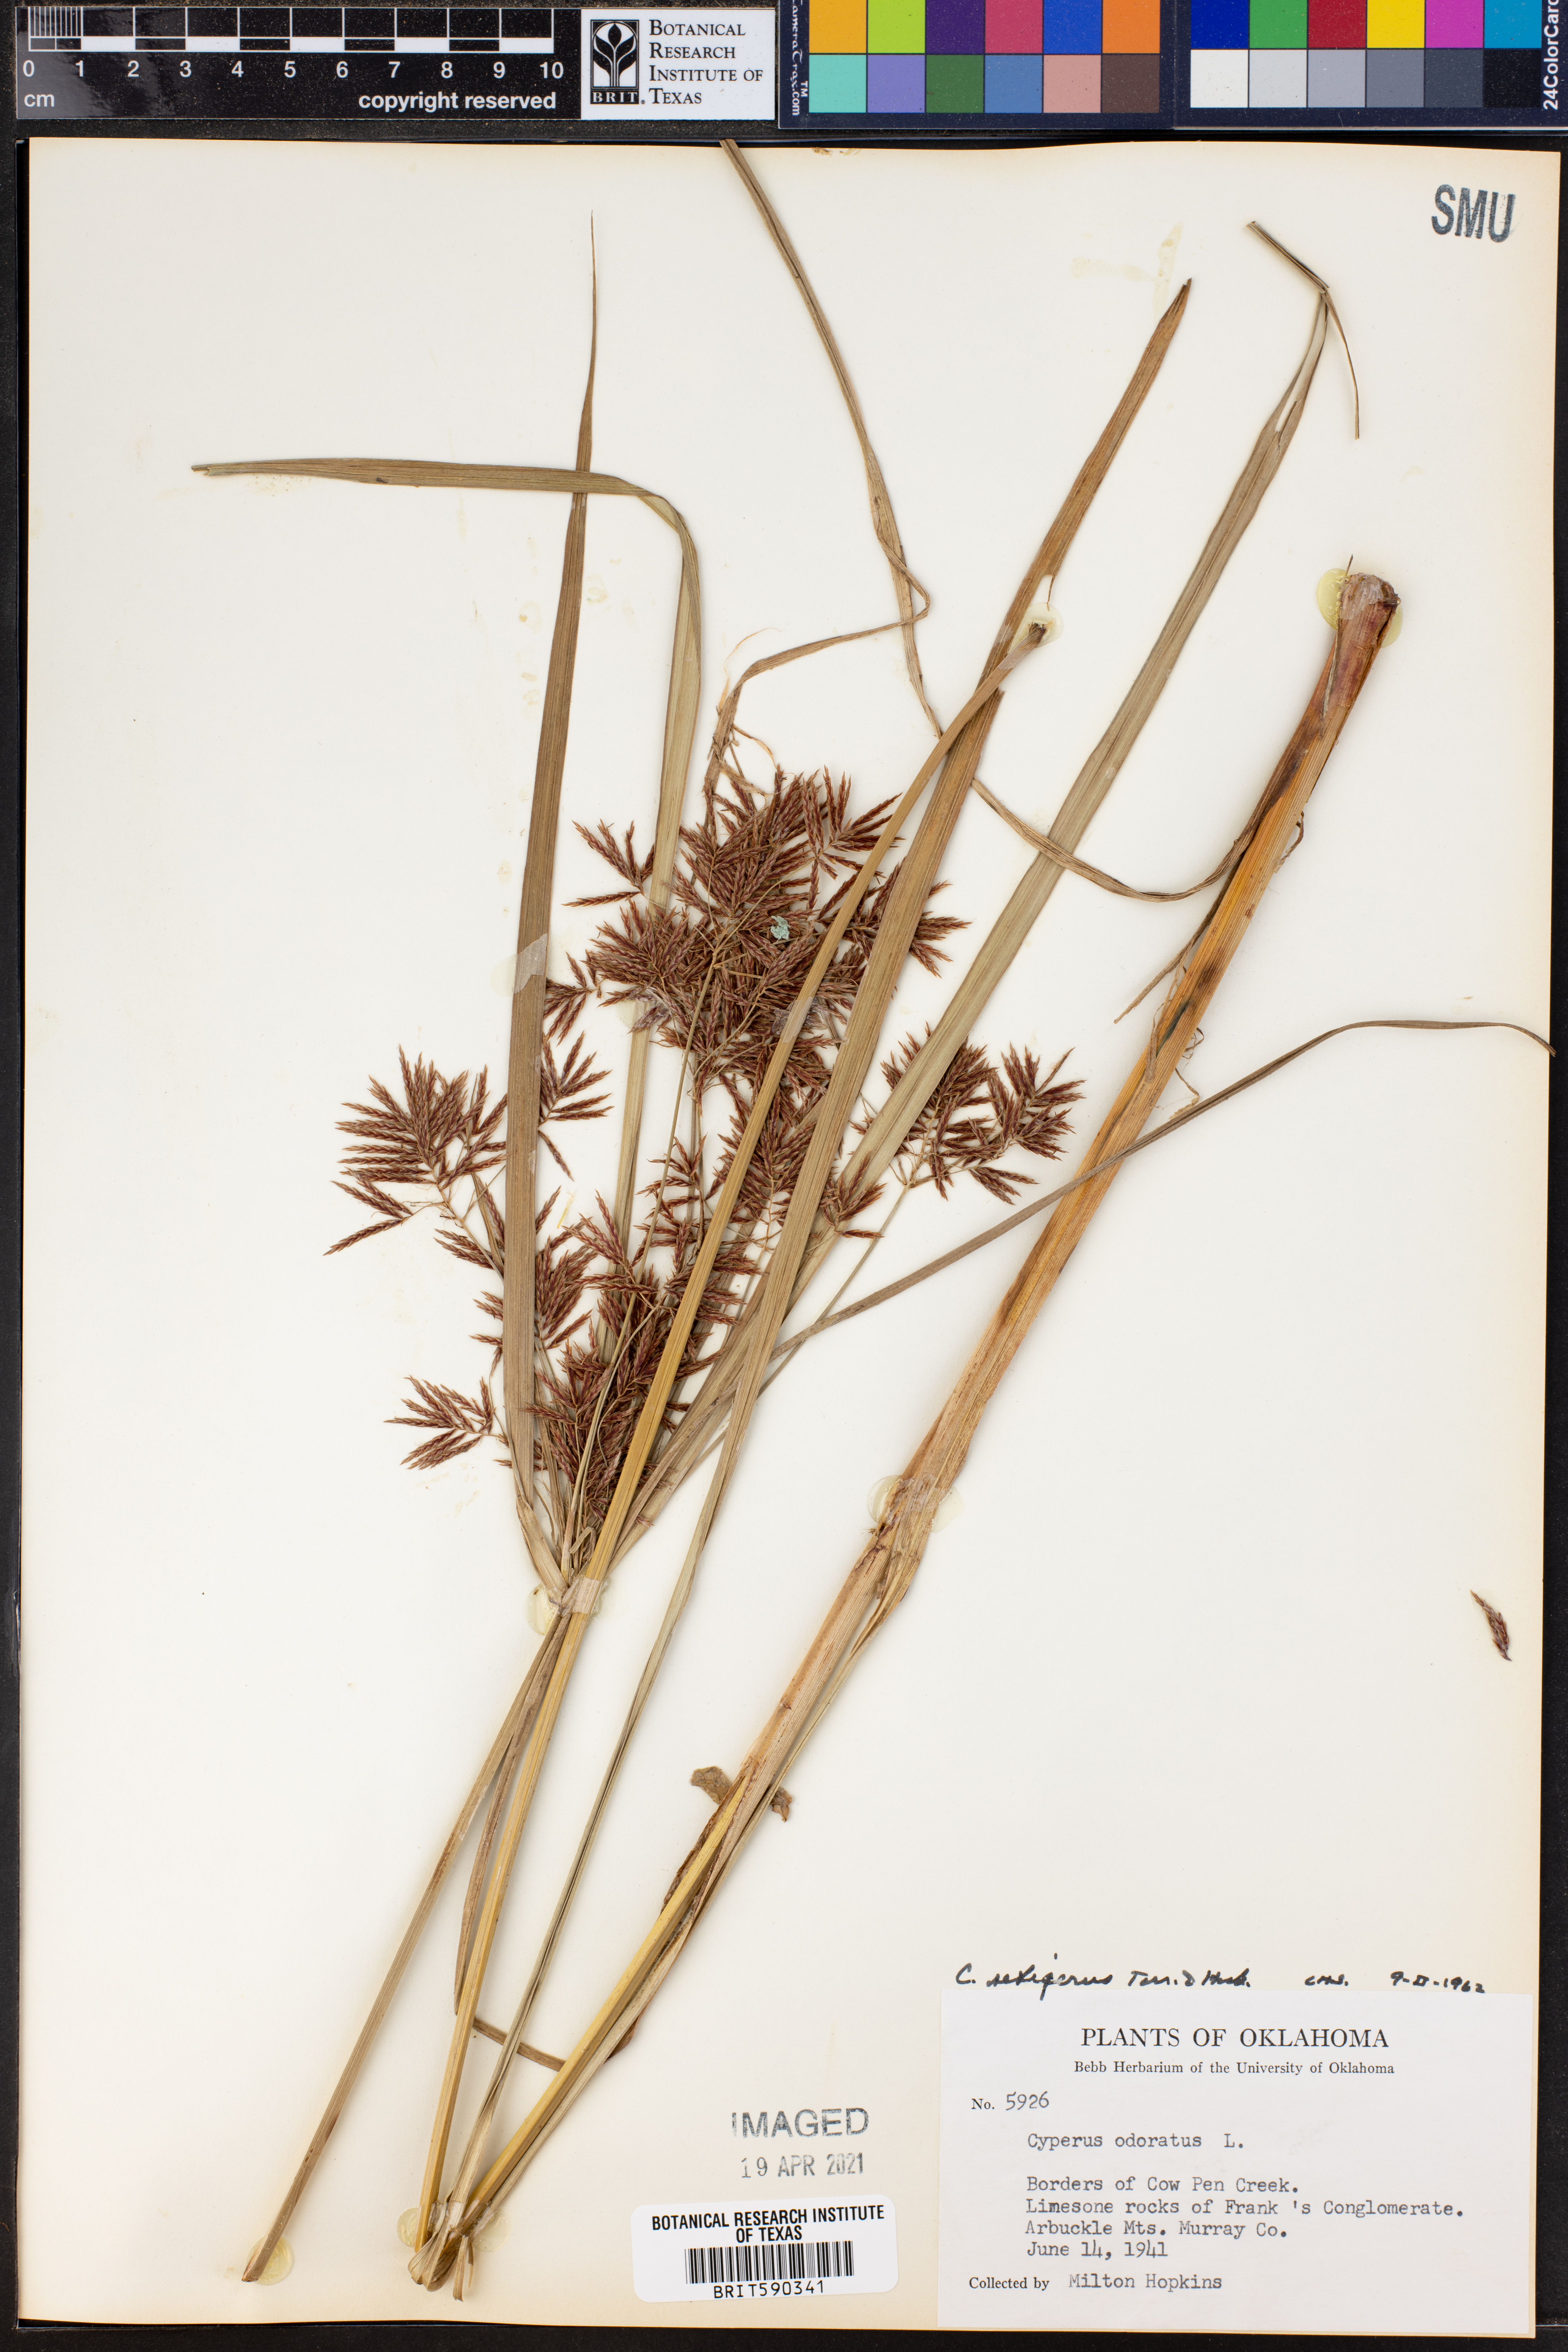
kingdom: Plantae
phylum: Tracheophyta
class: Liliopsida
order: Poales
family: Cyperaceae
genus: Cyperus
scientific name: Cyperus setigerus
